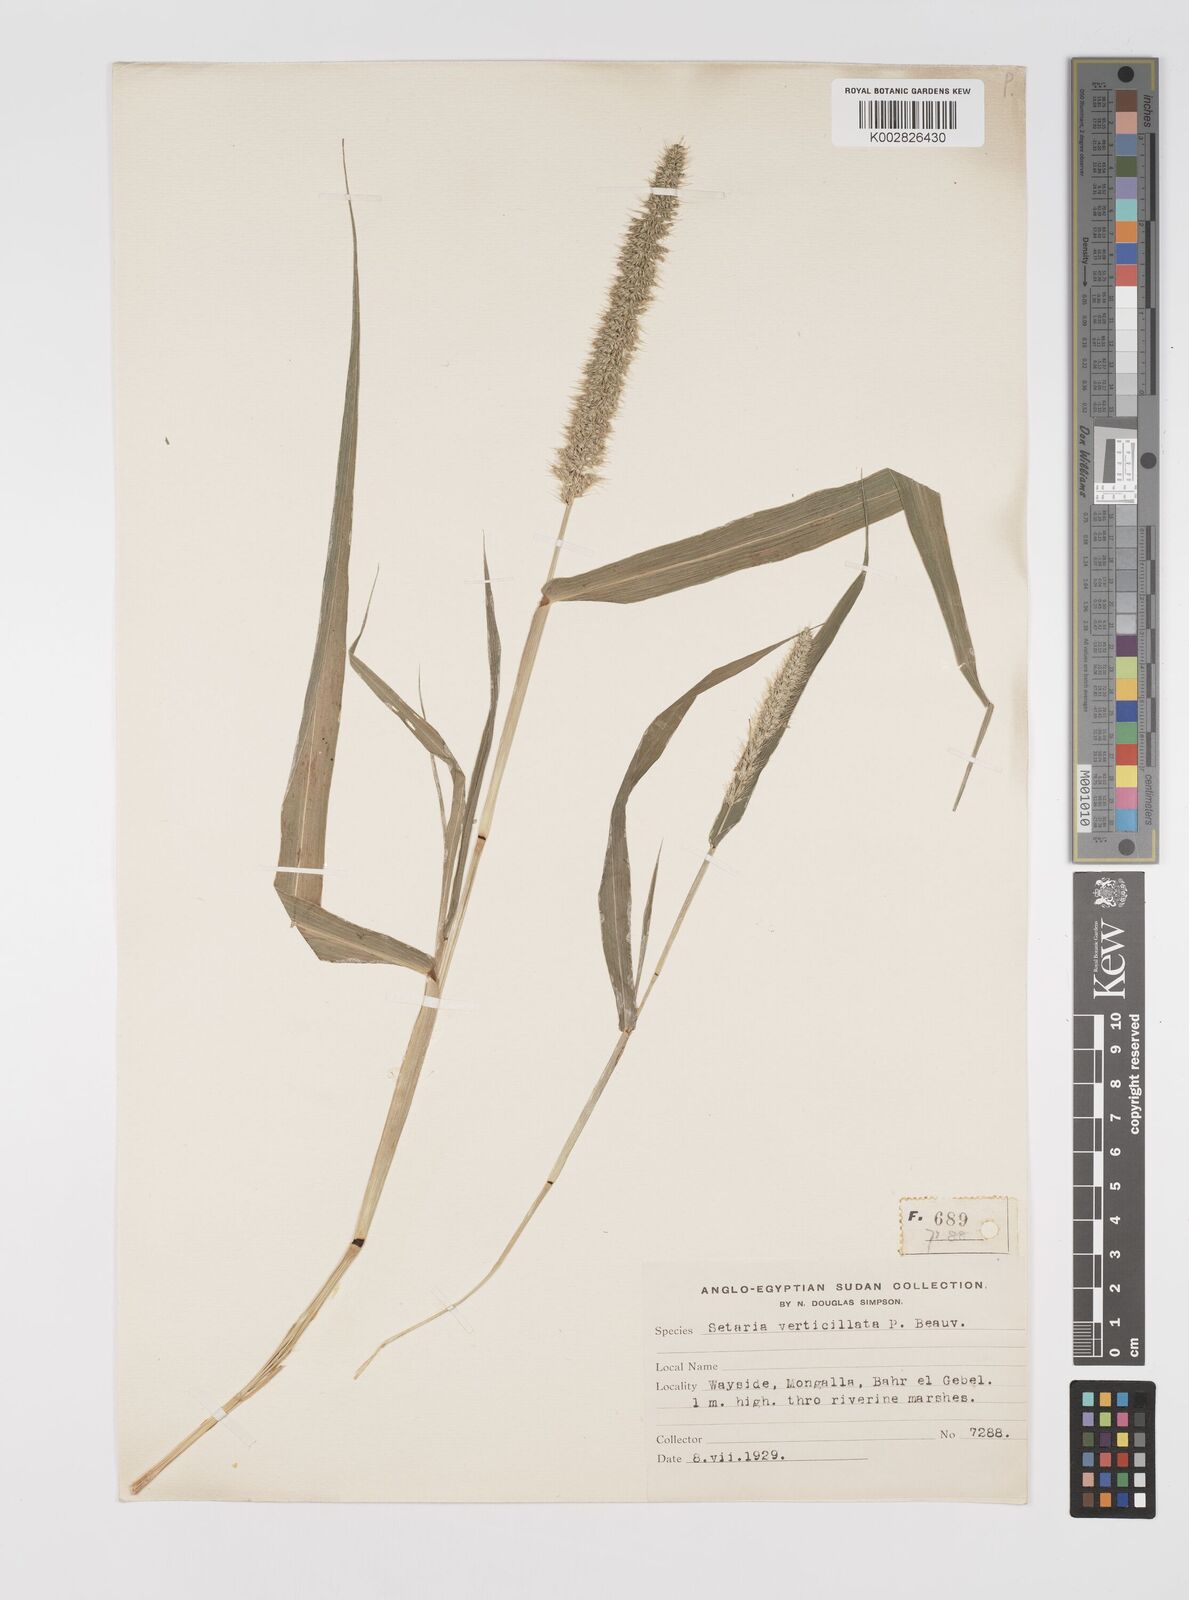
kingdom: Plantae
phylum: Tracheophyta
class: Liliopsida
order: Poales
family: Poaceae
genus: Setaria
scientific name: Setaria verticillata
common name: Hooked bristlegrass
